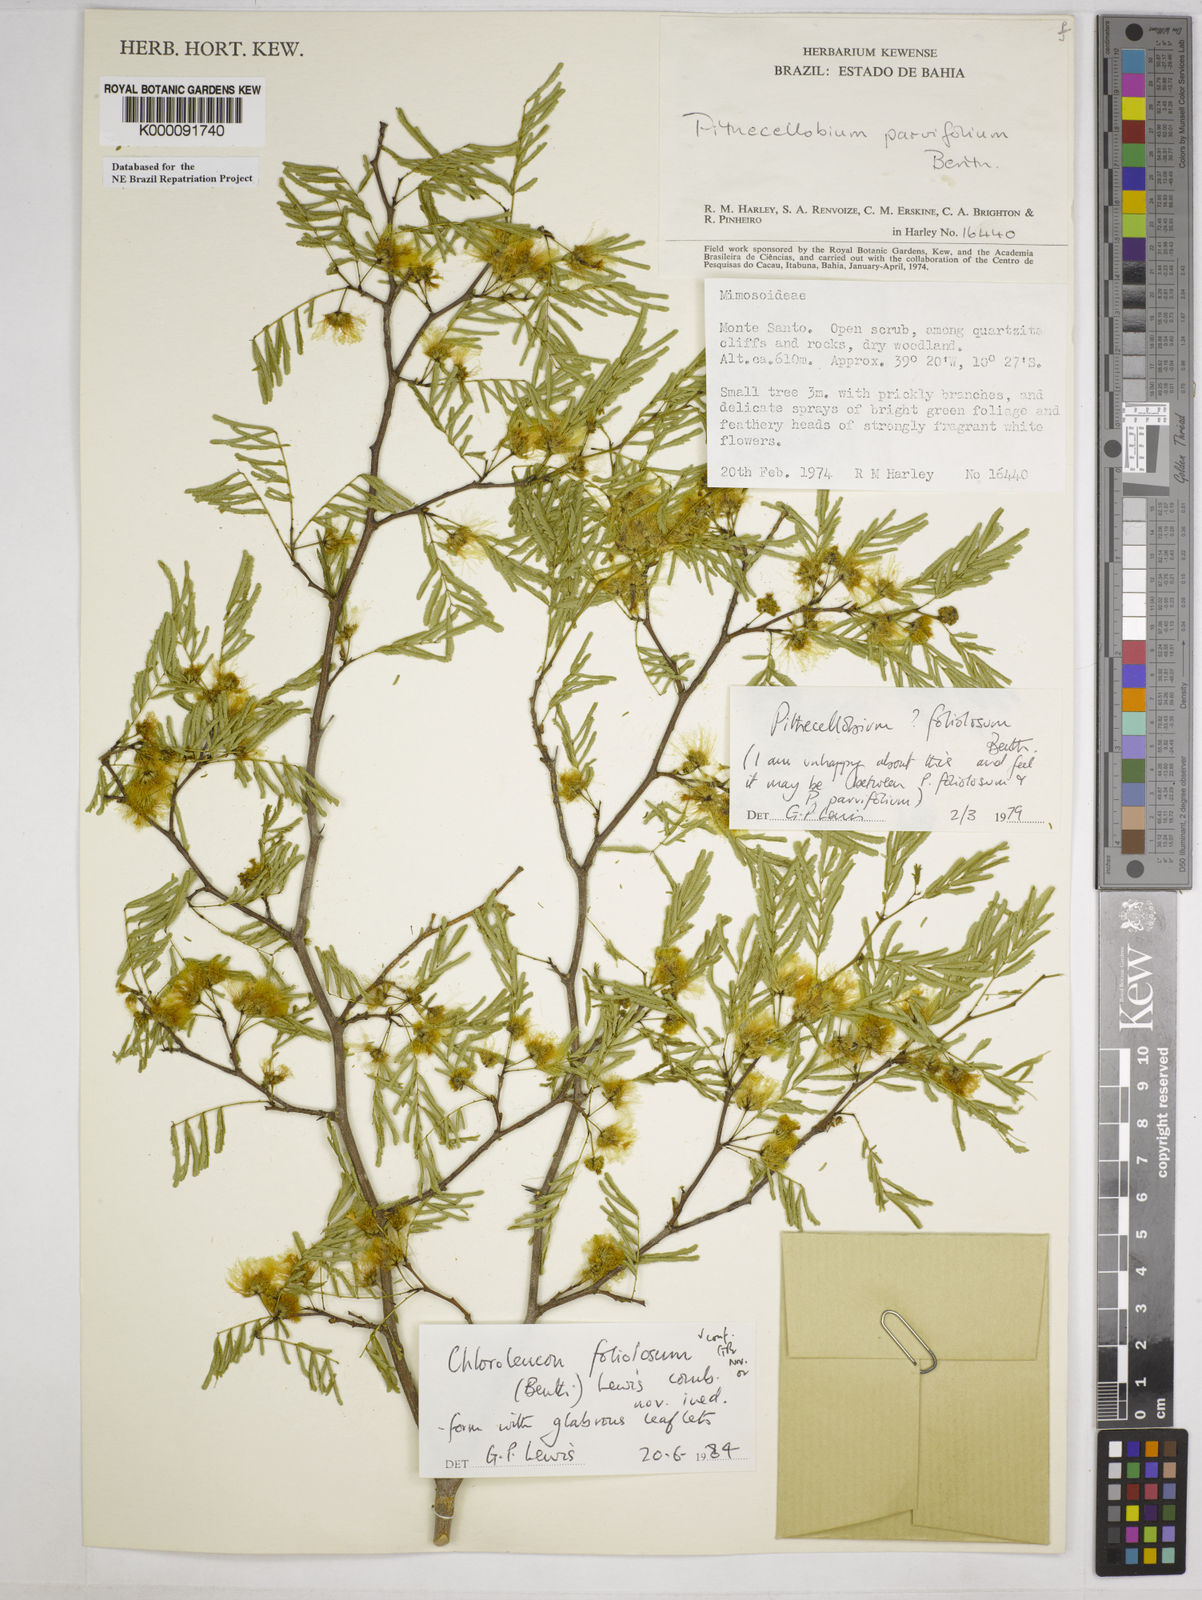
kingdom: Plantae
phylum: Tracheophyta
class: Magnoliopsida
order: Fabales
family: Fabaceae
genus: Chloroleucon
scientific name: Chloroleucon foliolosum
